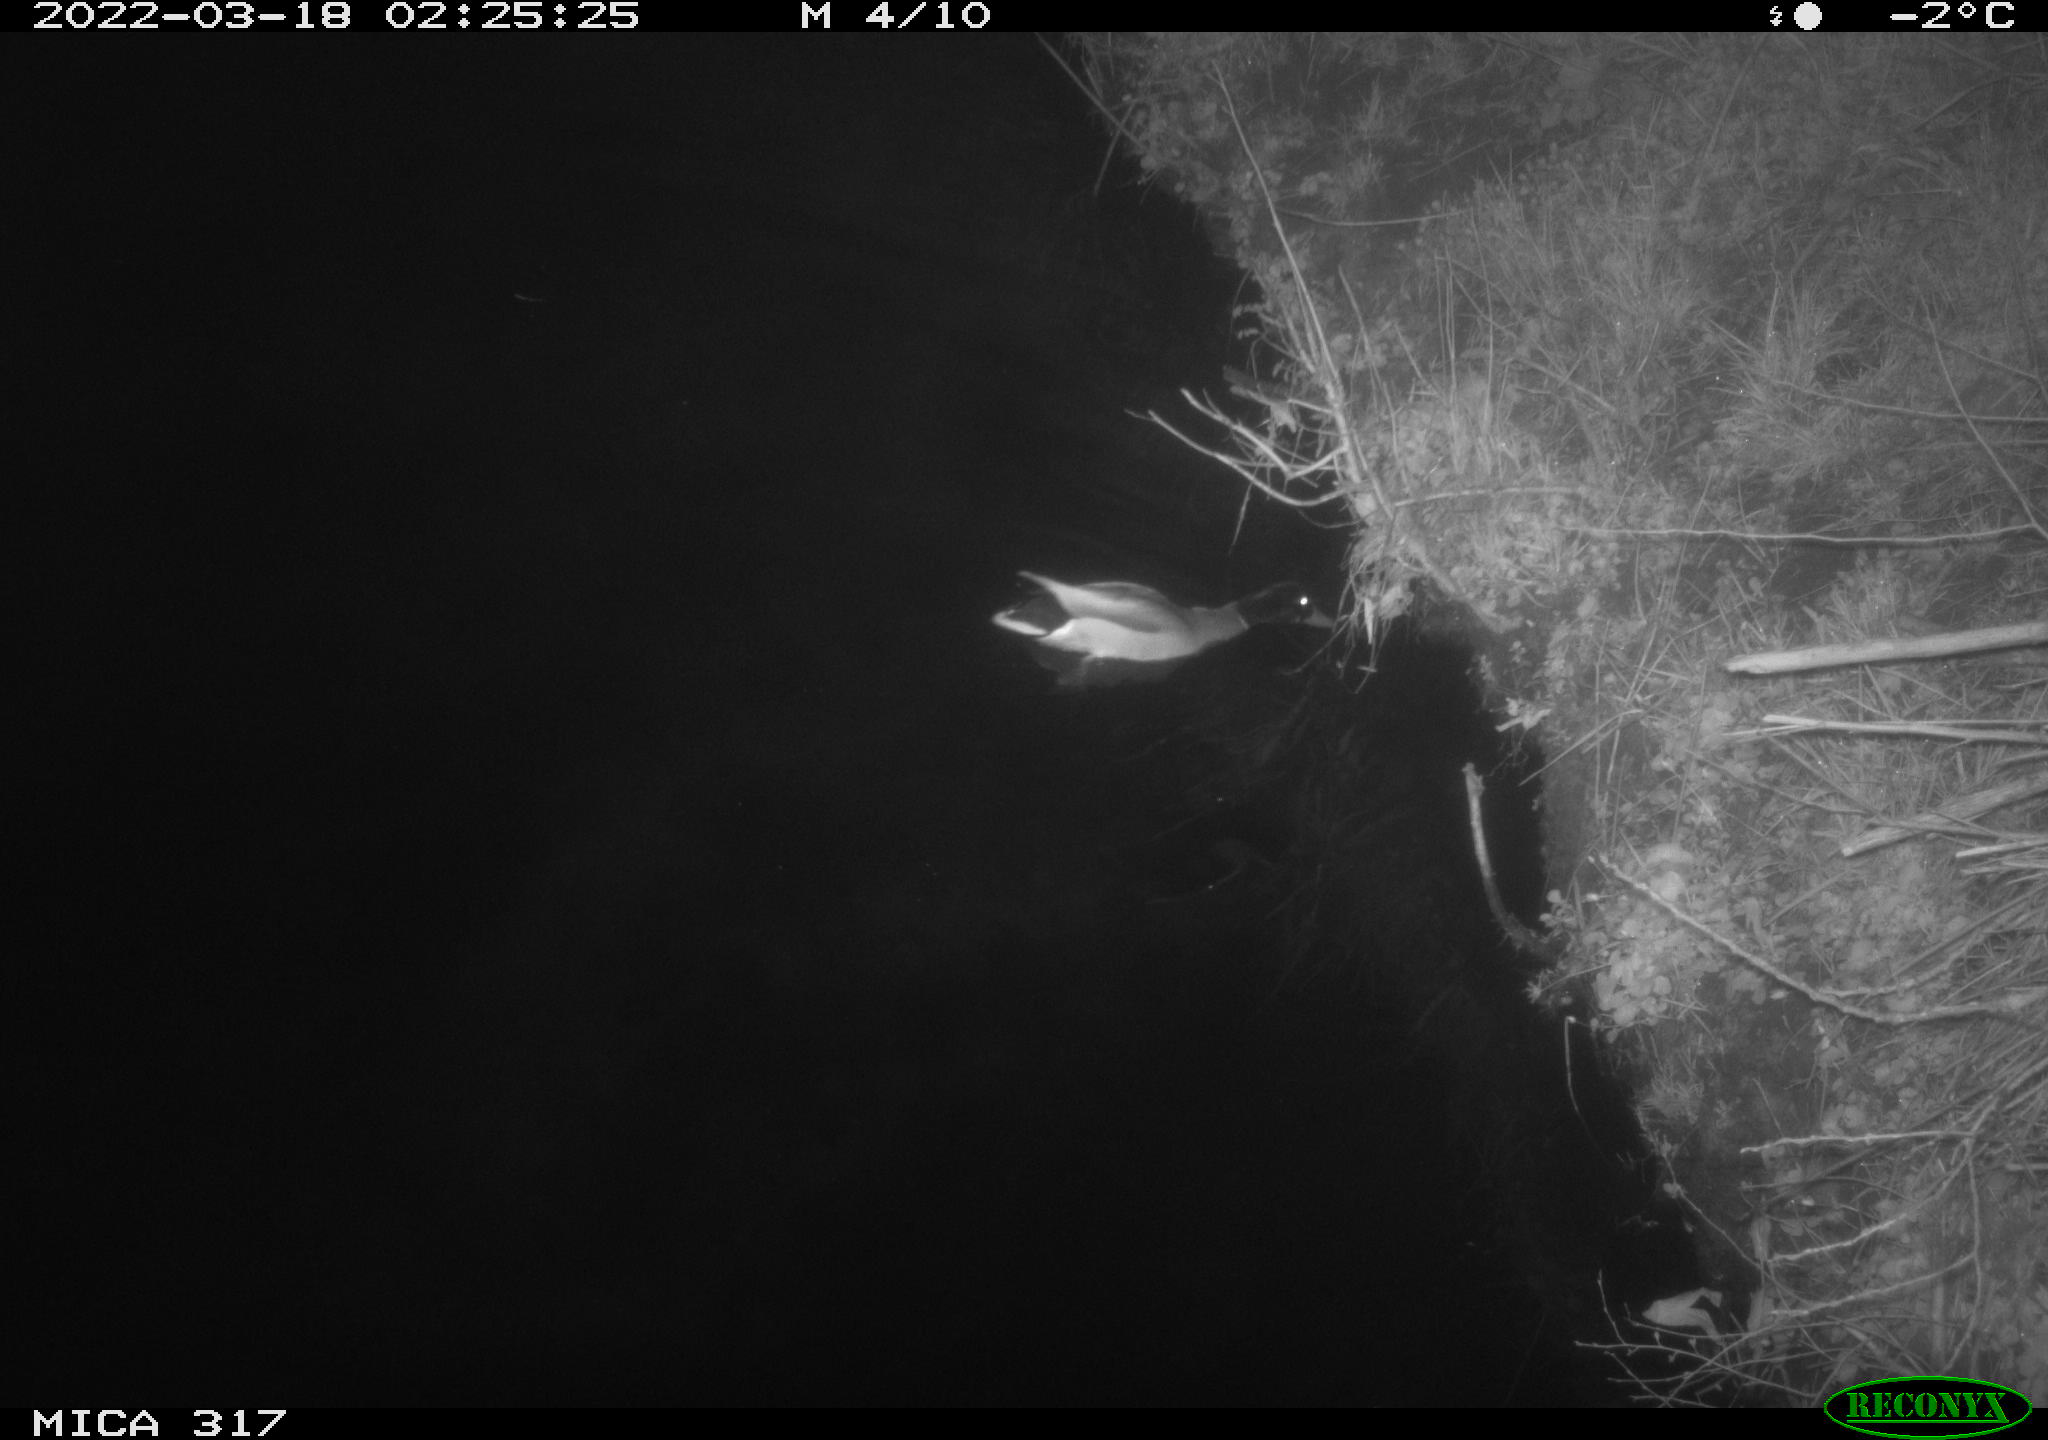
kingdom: Animalia
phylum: Chordata
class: Aves
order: Anseriformes
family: Anatidae
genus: Anas
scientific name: Anas platyrhynchos
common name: Mallard
